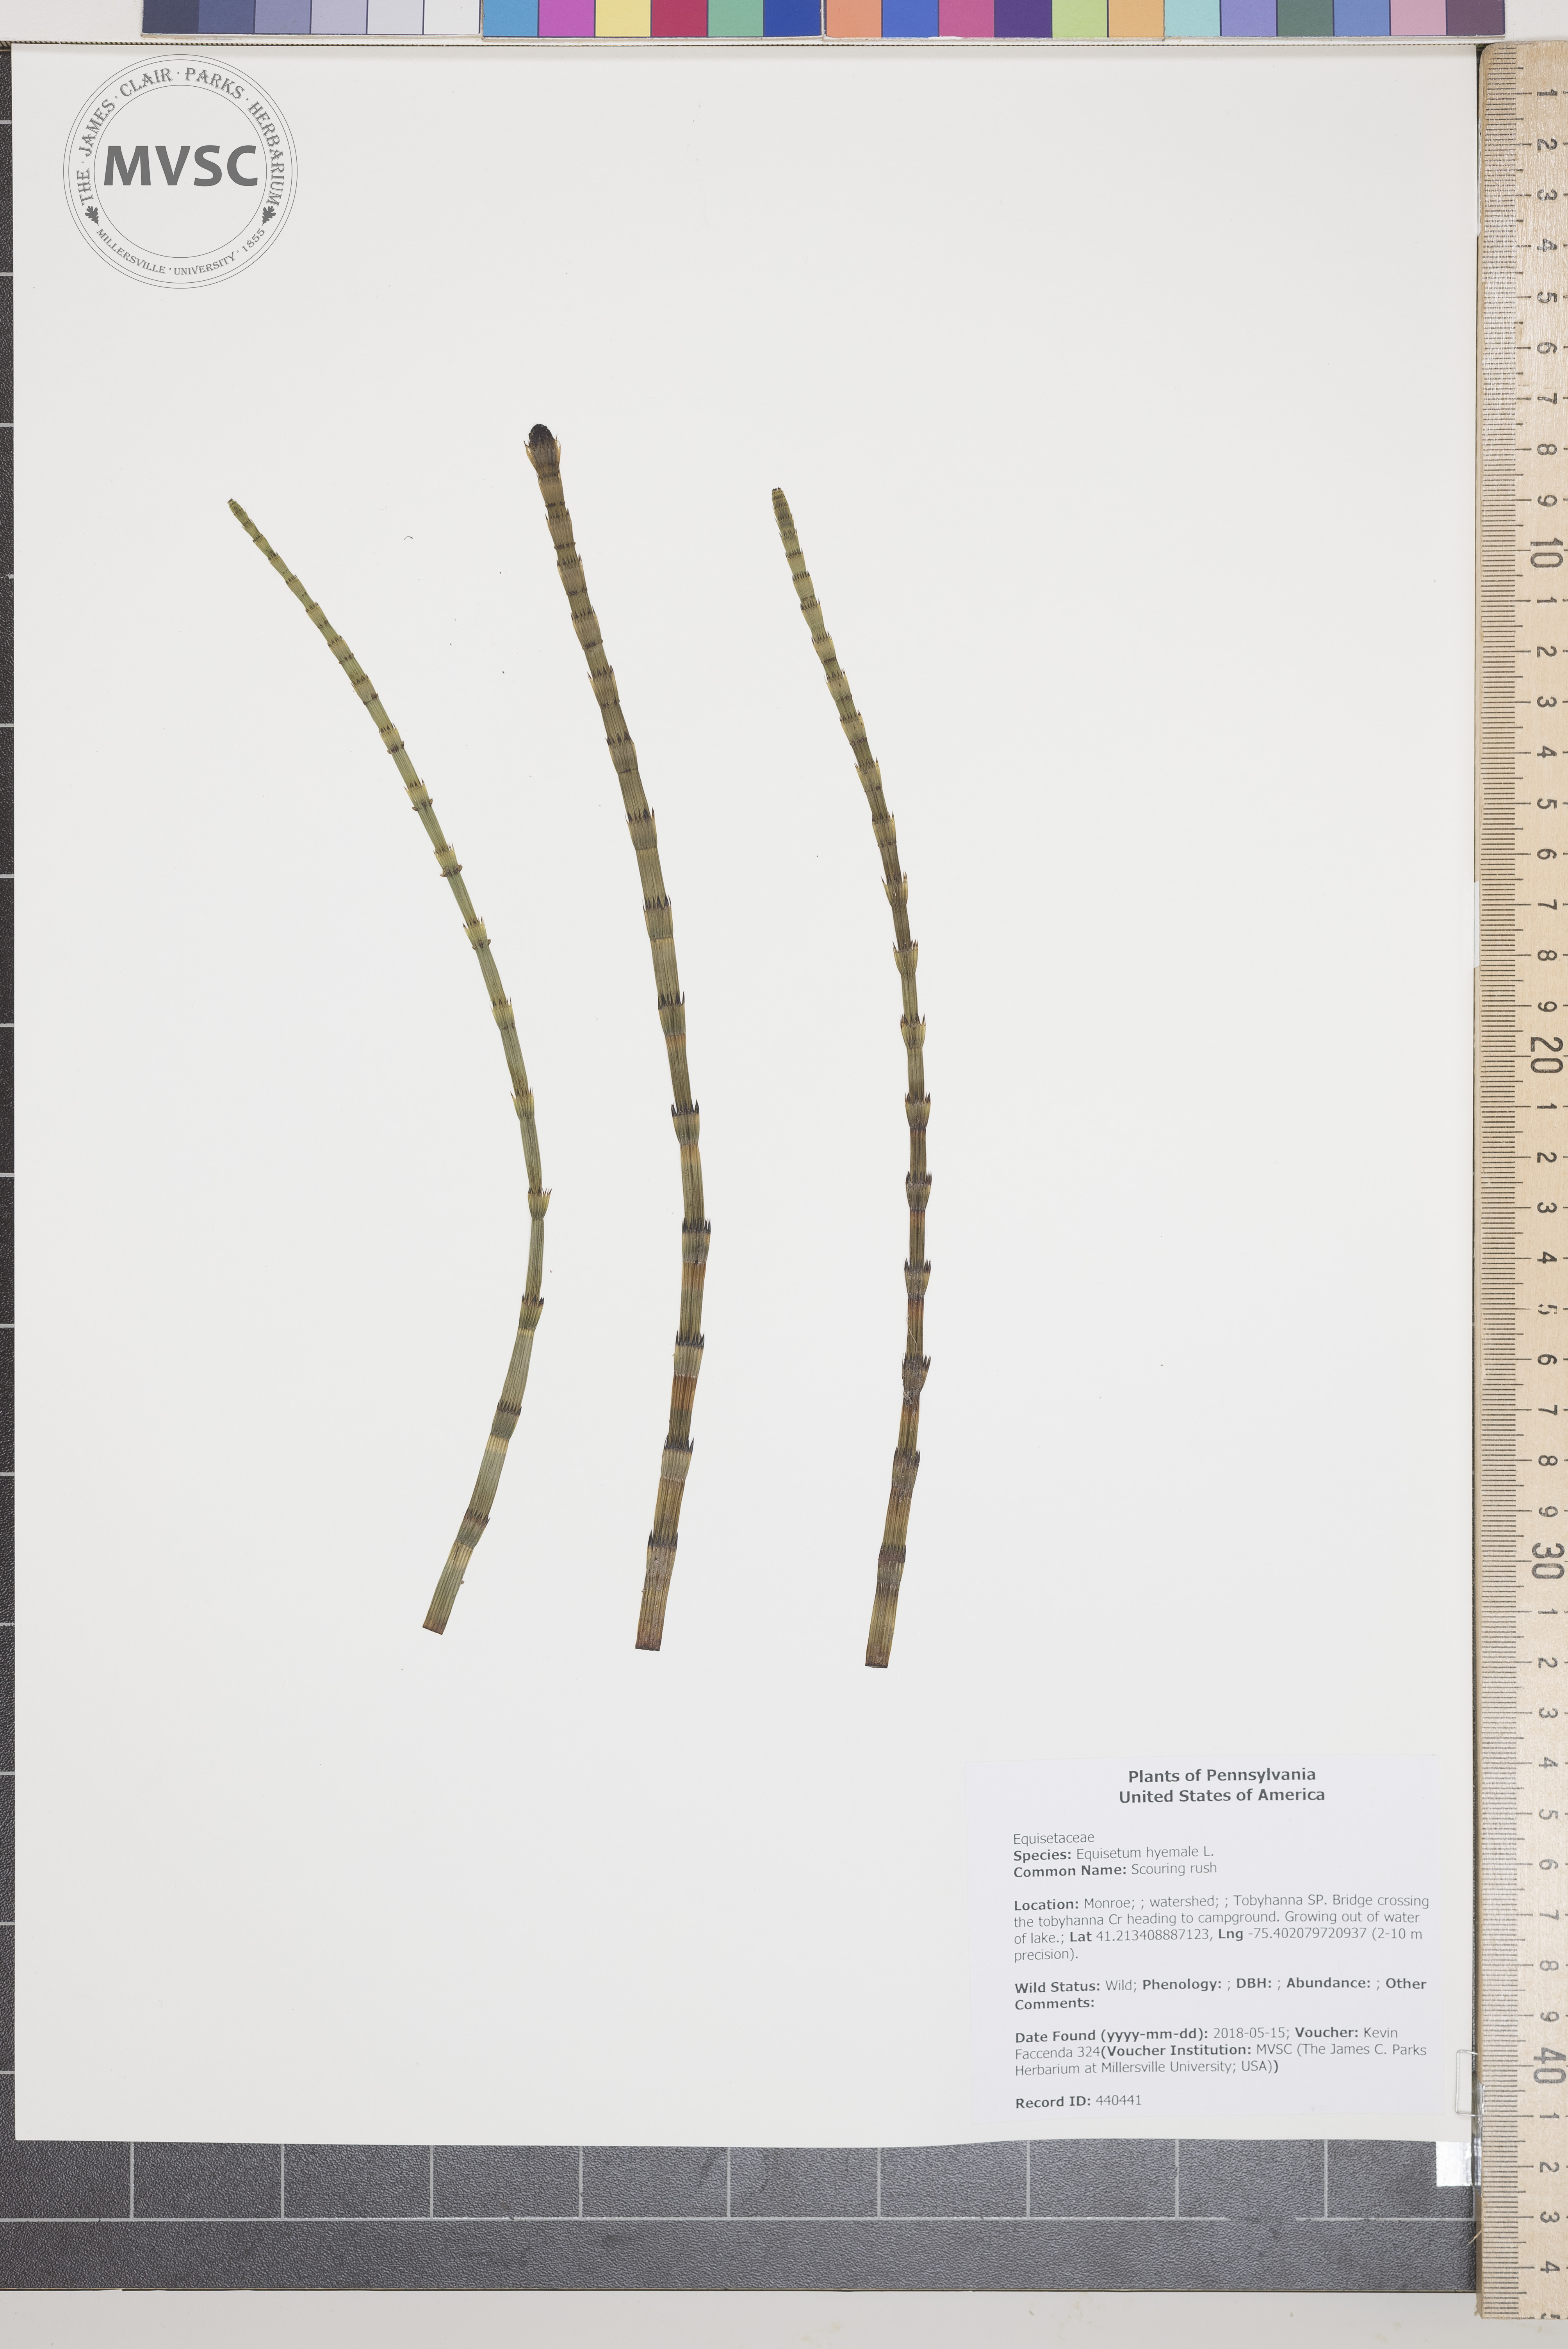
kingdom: Plantae
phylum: Tracheophyta
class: Polypodiopsida
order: Equisetales
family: Equisetaceae
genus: Equisetum
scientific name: Equisetum hyemale
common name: Scouring rush
